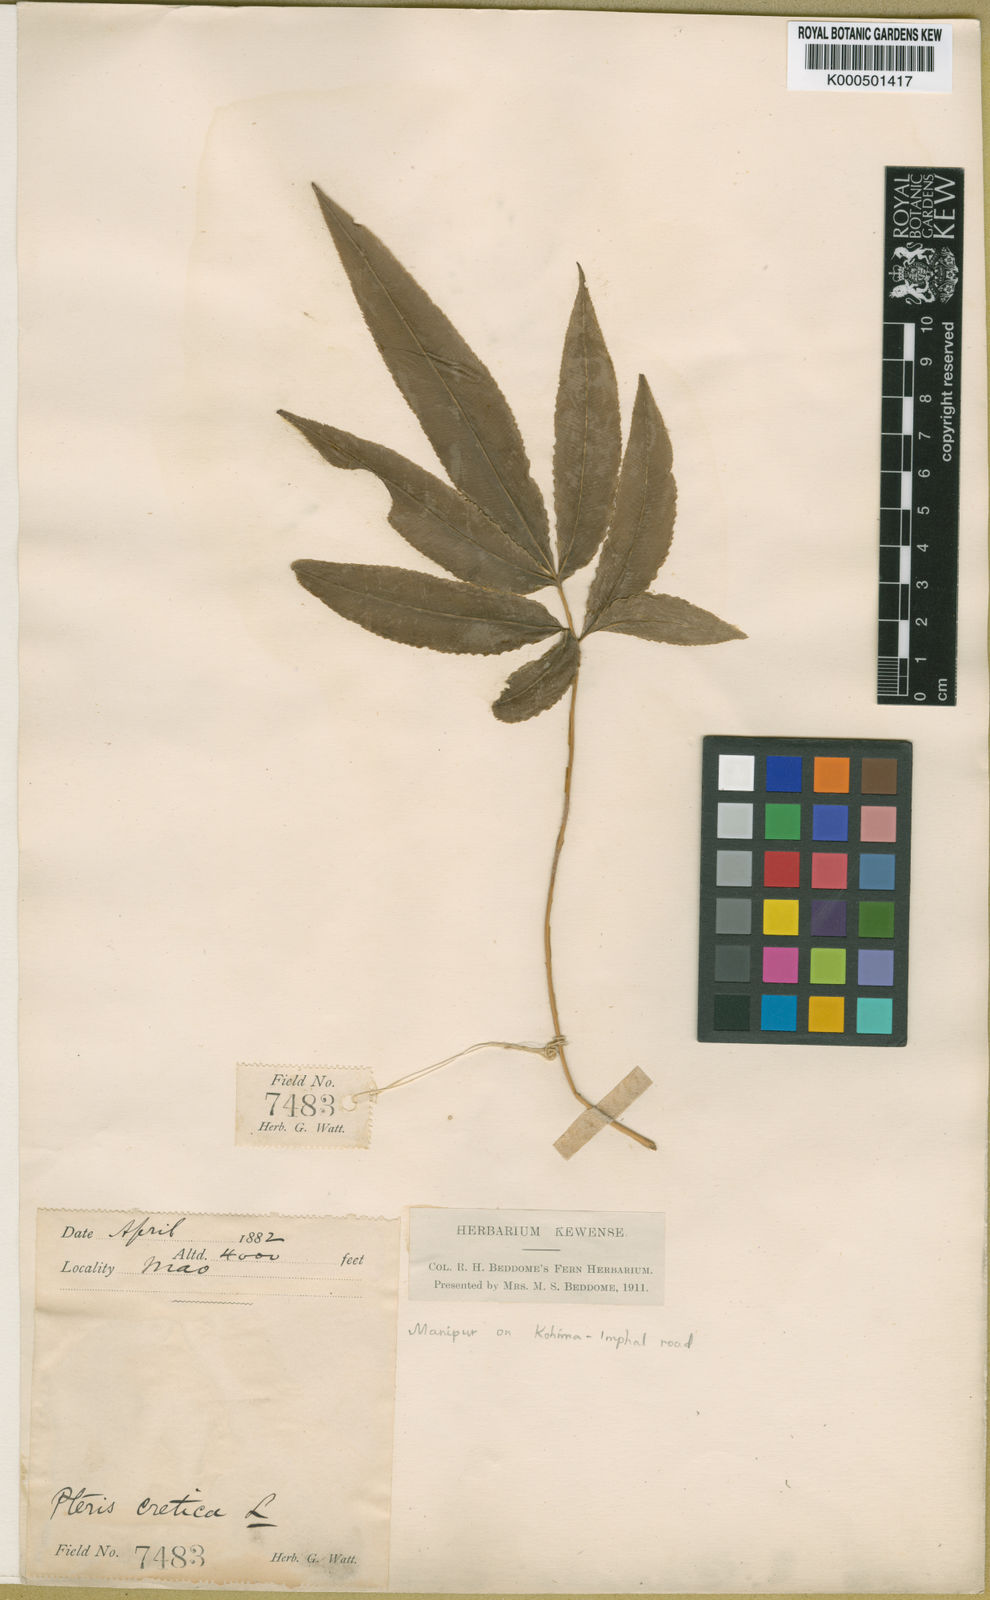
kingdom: Plantae
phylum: Tracheophyta
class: Polypodiopsida
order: Polypodiales
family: Pteridaceae
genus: Pteris
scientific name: Pteris cretica
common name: Ribbon fern
